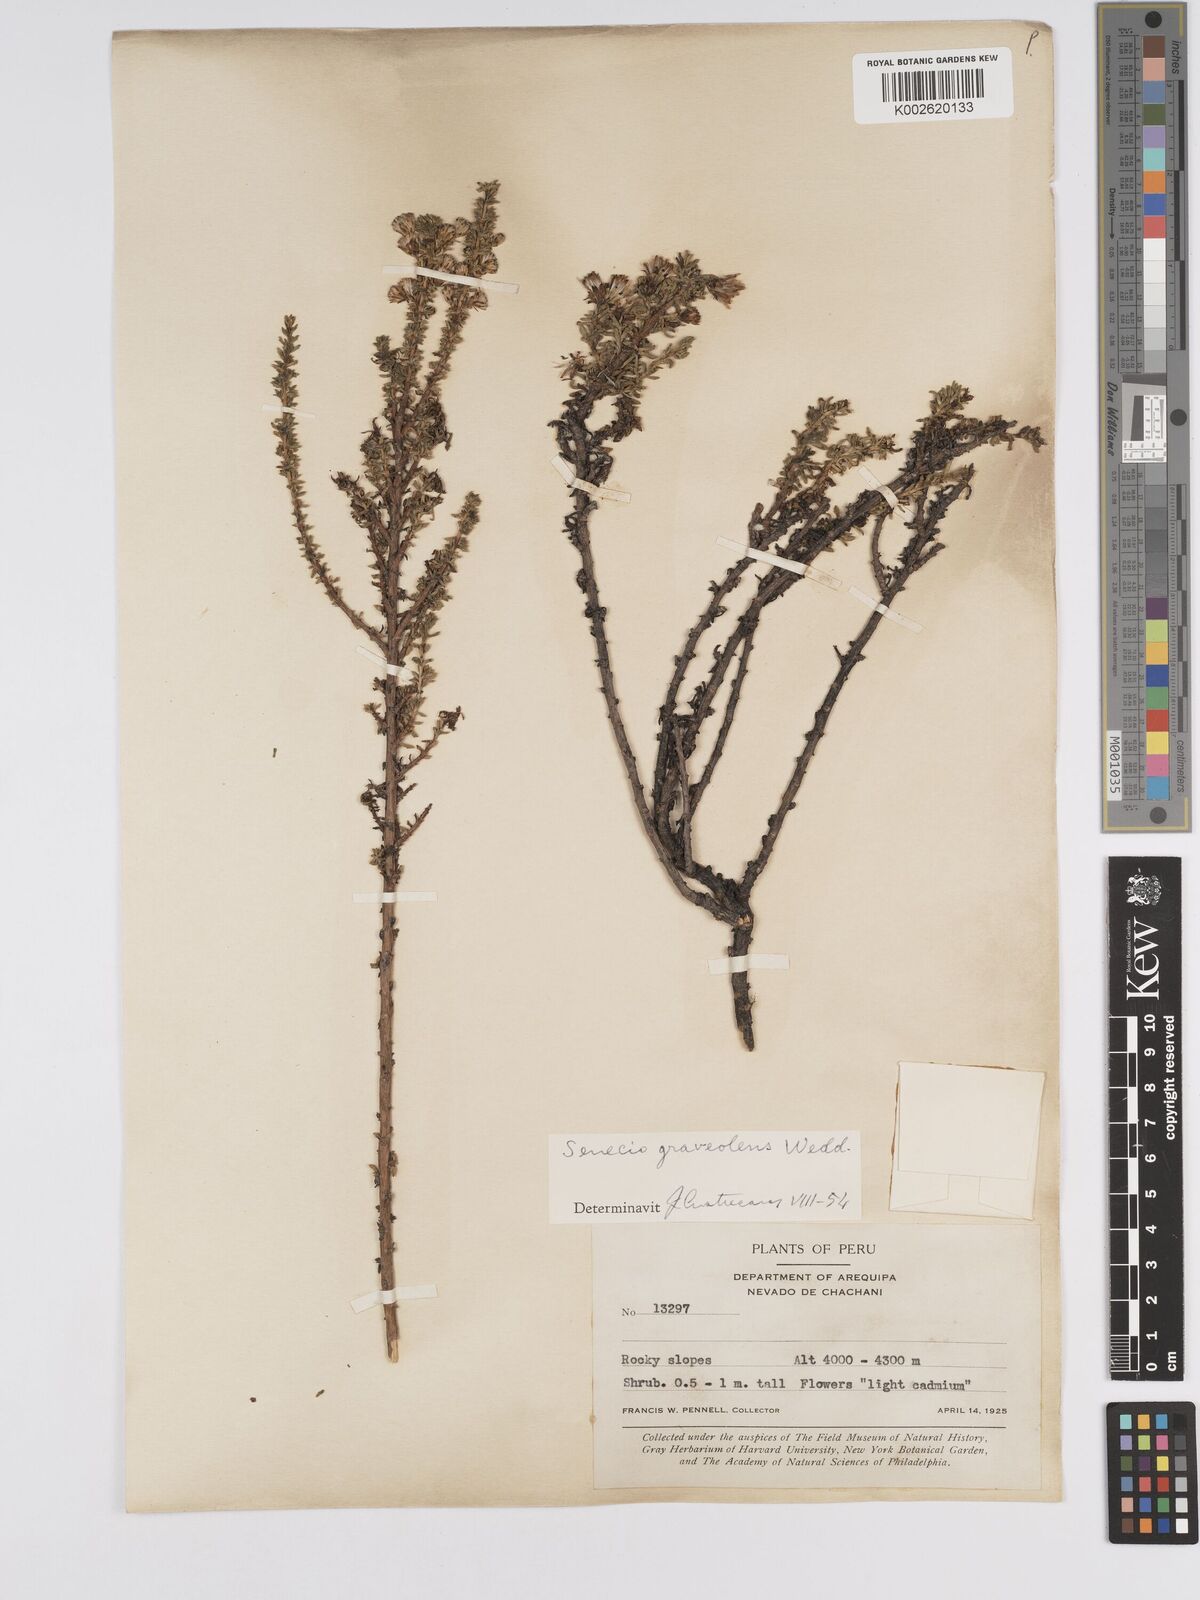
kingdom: Plantae
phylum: Tracheophyta
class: Magnoliopsida
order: Asterales
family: Asteraceae
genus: Senecio
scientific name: Senecio nutans
